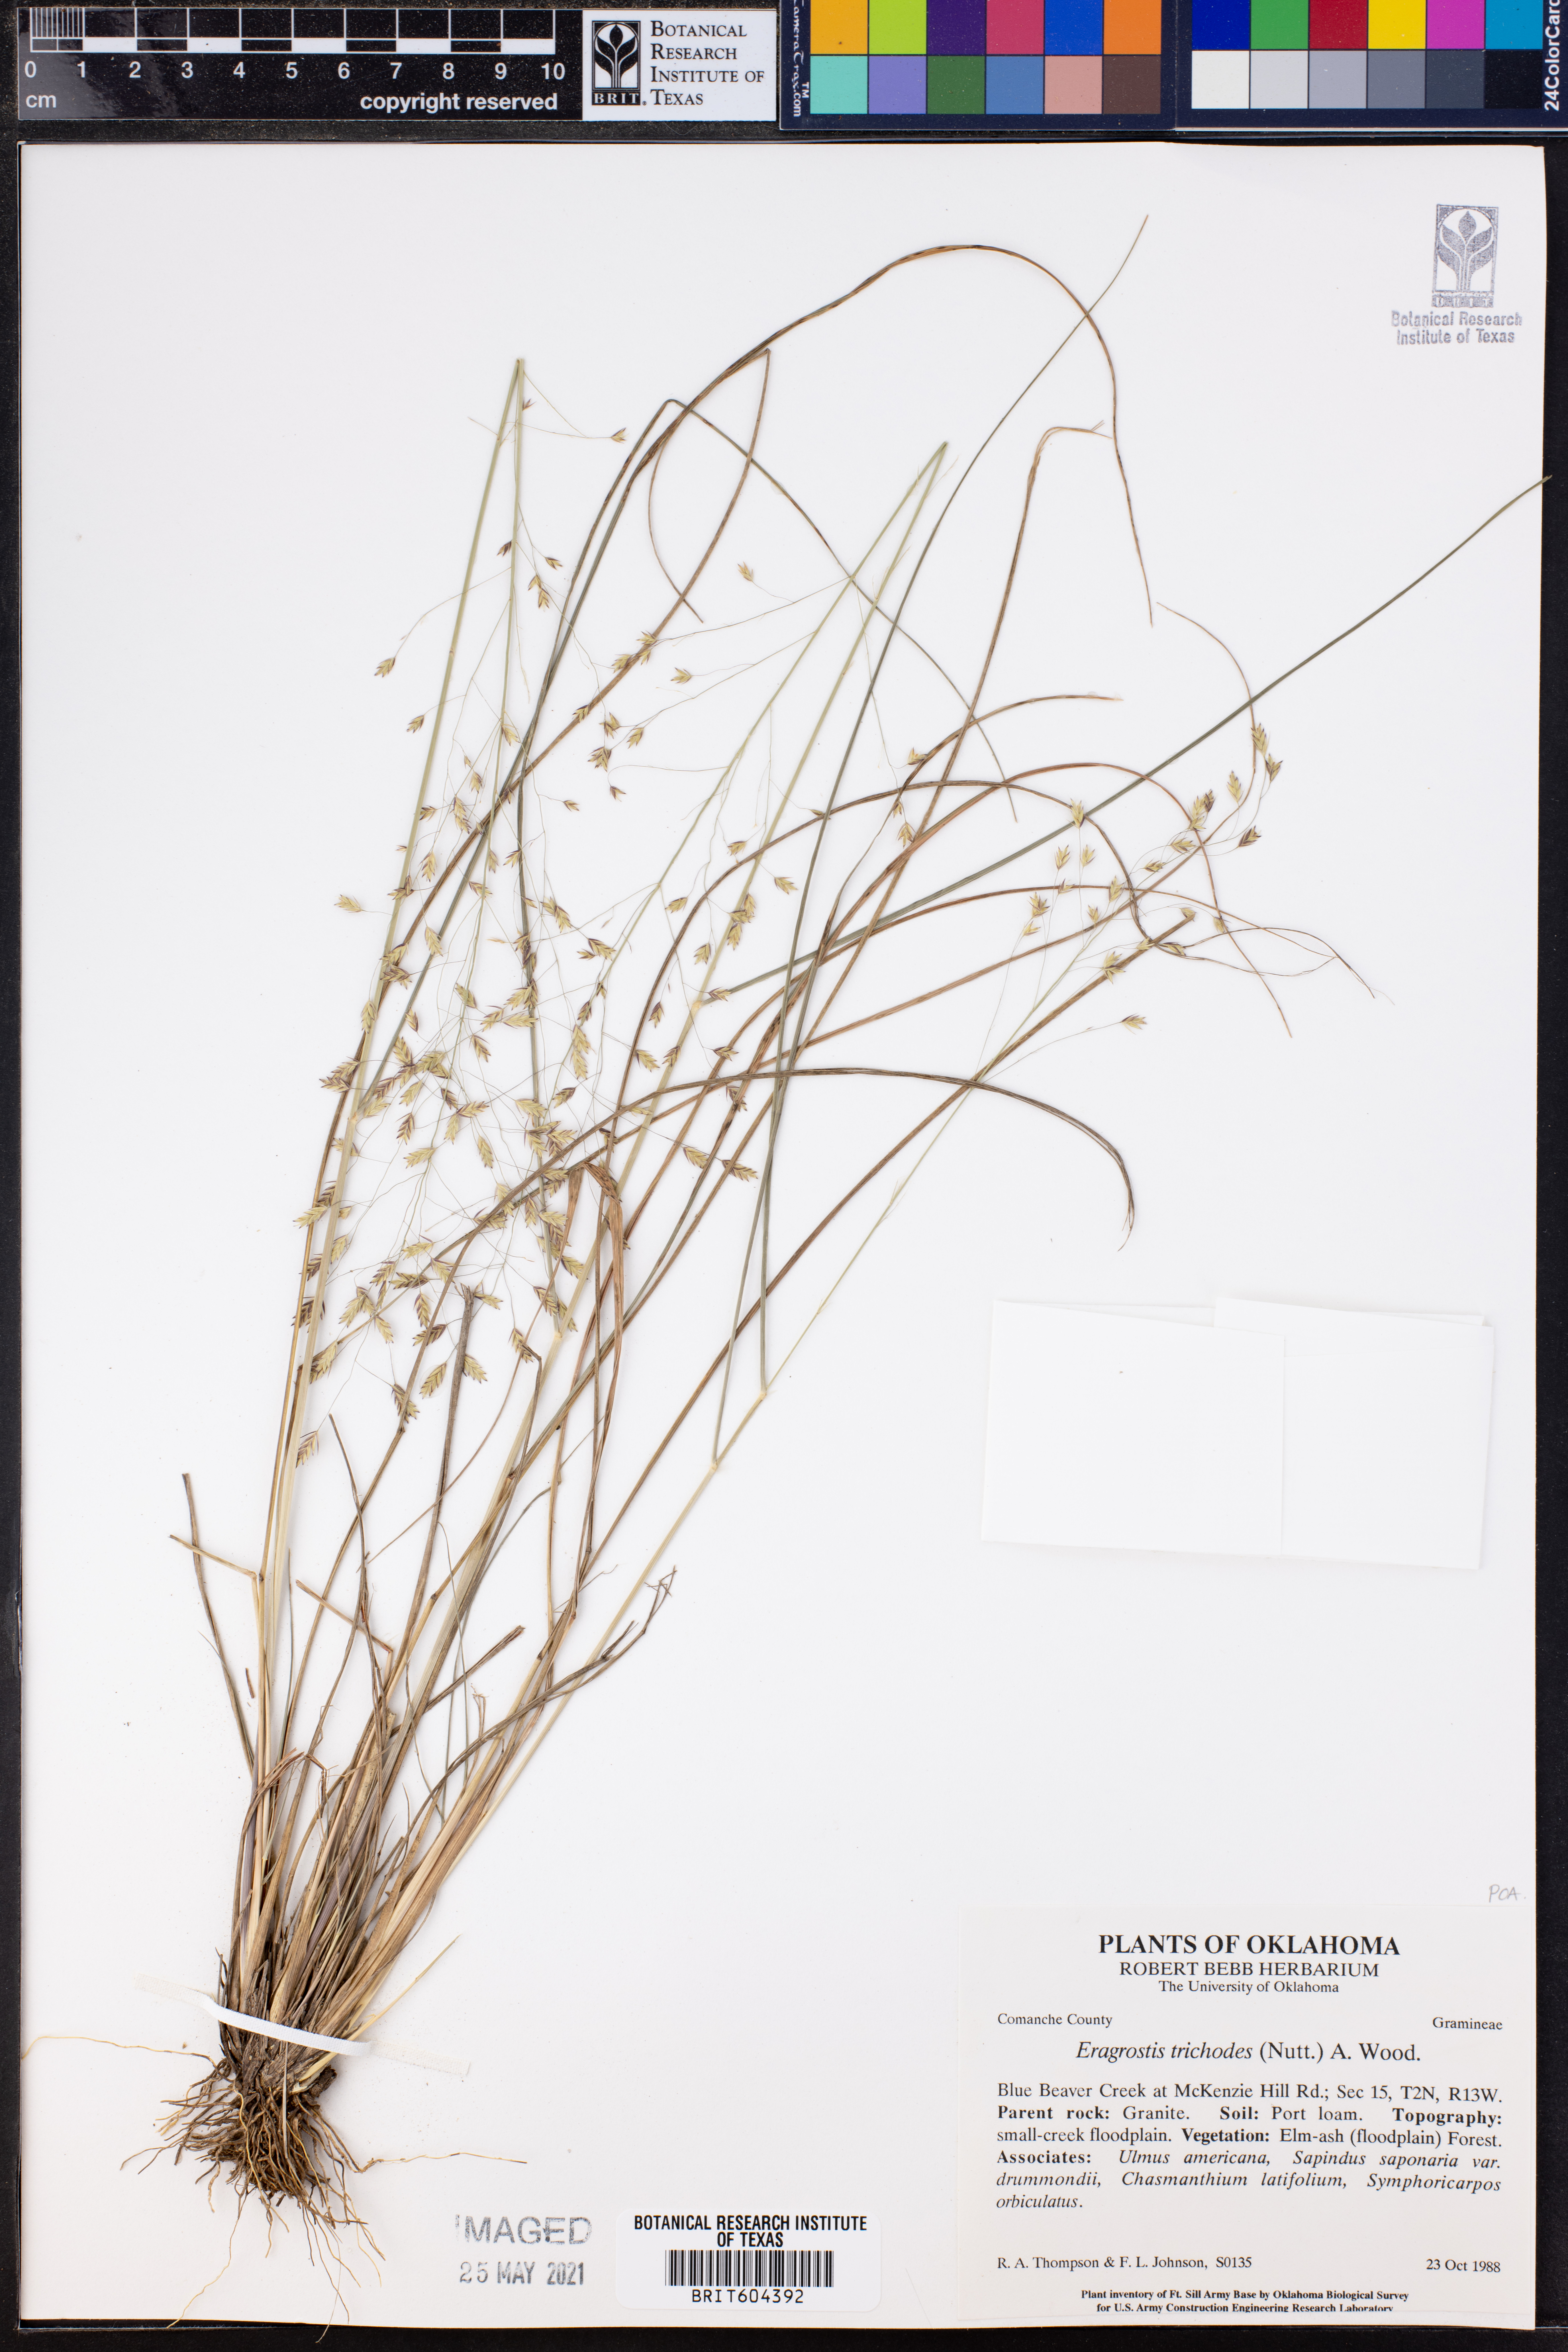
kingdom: Plantae
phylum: Tracheophyta
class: Liliopsida
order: Poales
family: Poaceae
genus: Eragrostis
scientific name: Eragrostis trichodes
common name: Sand love grass
